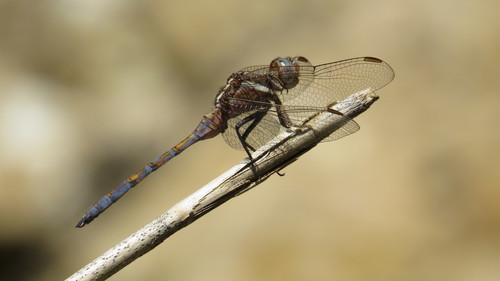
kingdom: Animalia
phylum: Arthropoda
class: Insecta
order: Odonata
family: Libellulidae
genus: Orthetrum
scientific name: Orthetrum chrysostigma
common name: Epaulet skimmer
